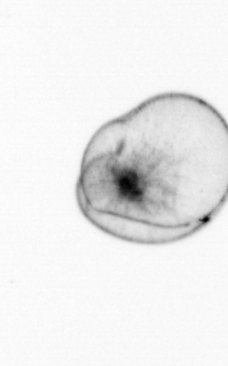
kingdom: Chromista
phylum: Myzozoa
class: Dinophyceae
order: Noctilucales
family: Noctilucaceae
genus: Noctiluca
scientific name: Noctiluca scintillans
